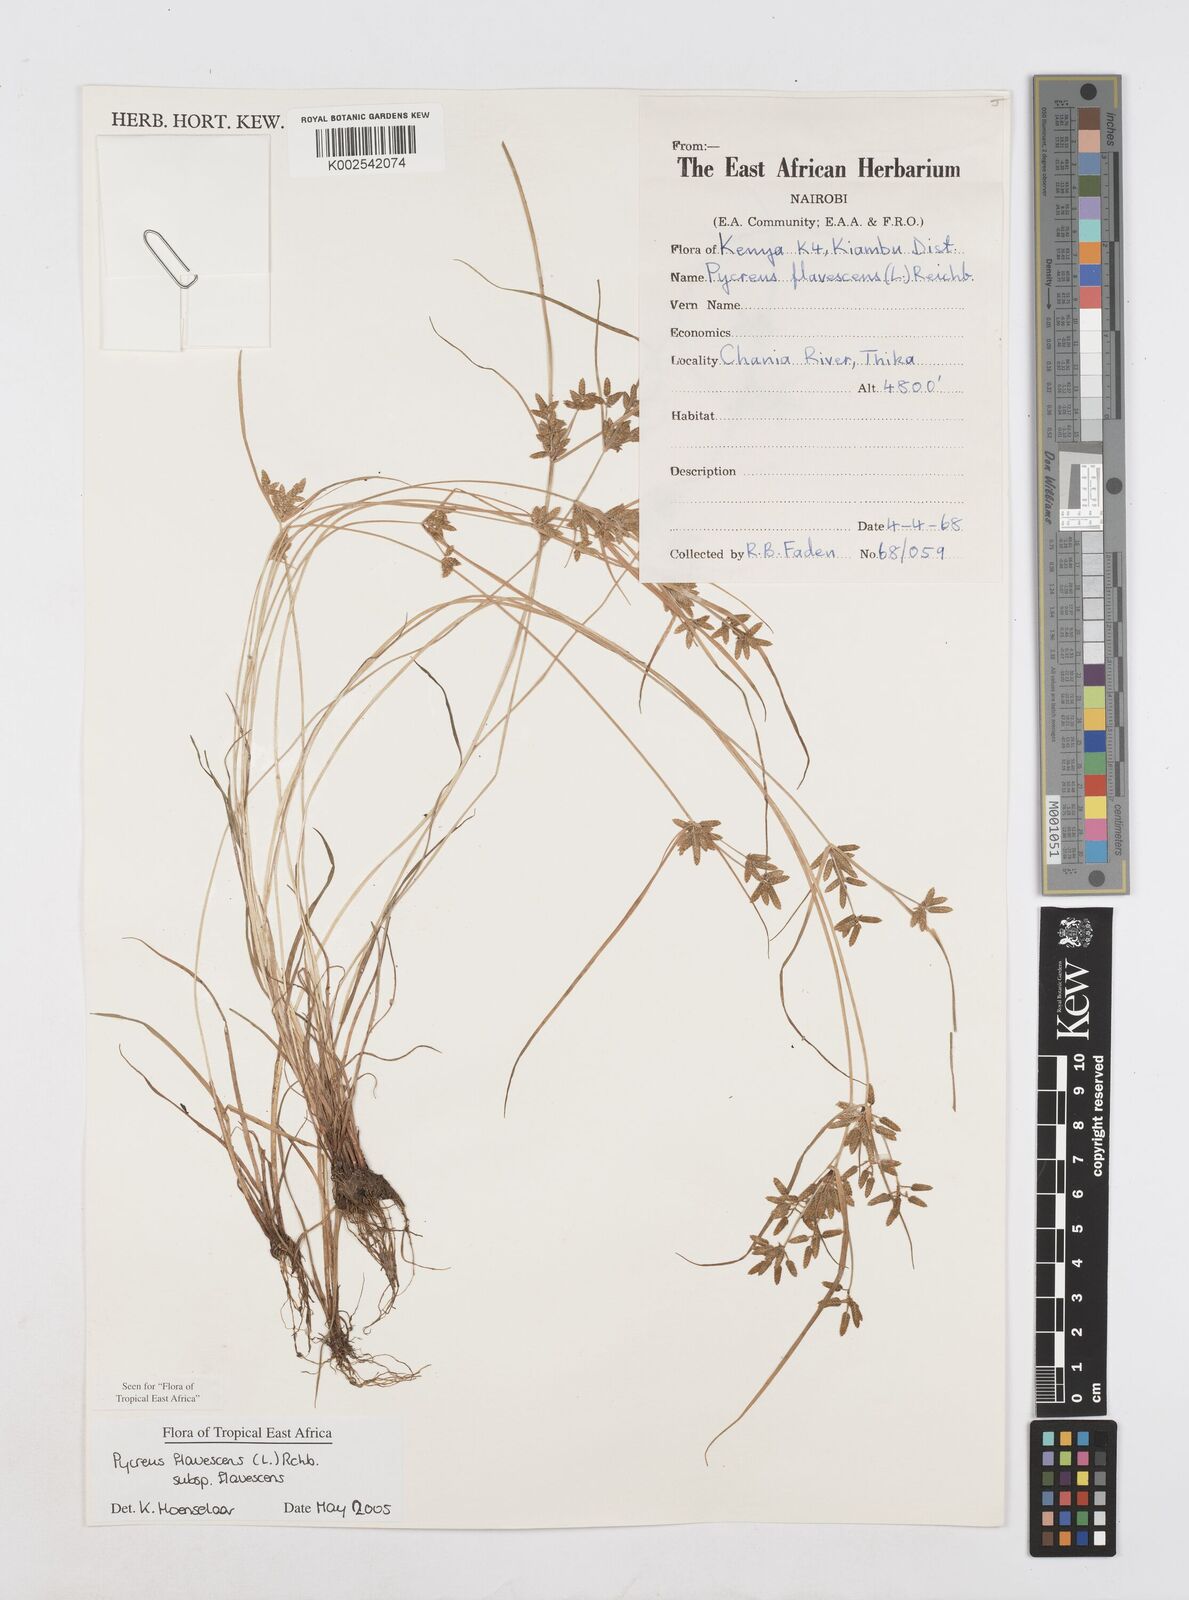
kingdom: Plantae
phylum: Tracheophyta
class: Liliopsida
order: Poales
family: Cyperaceae
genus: Cyperus
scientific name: Cyperus flavescens
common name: Yellow galingale
